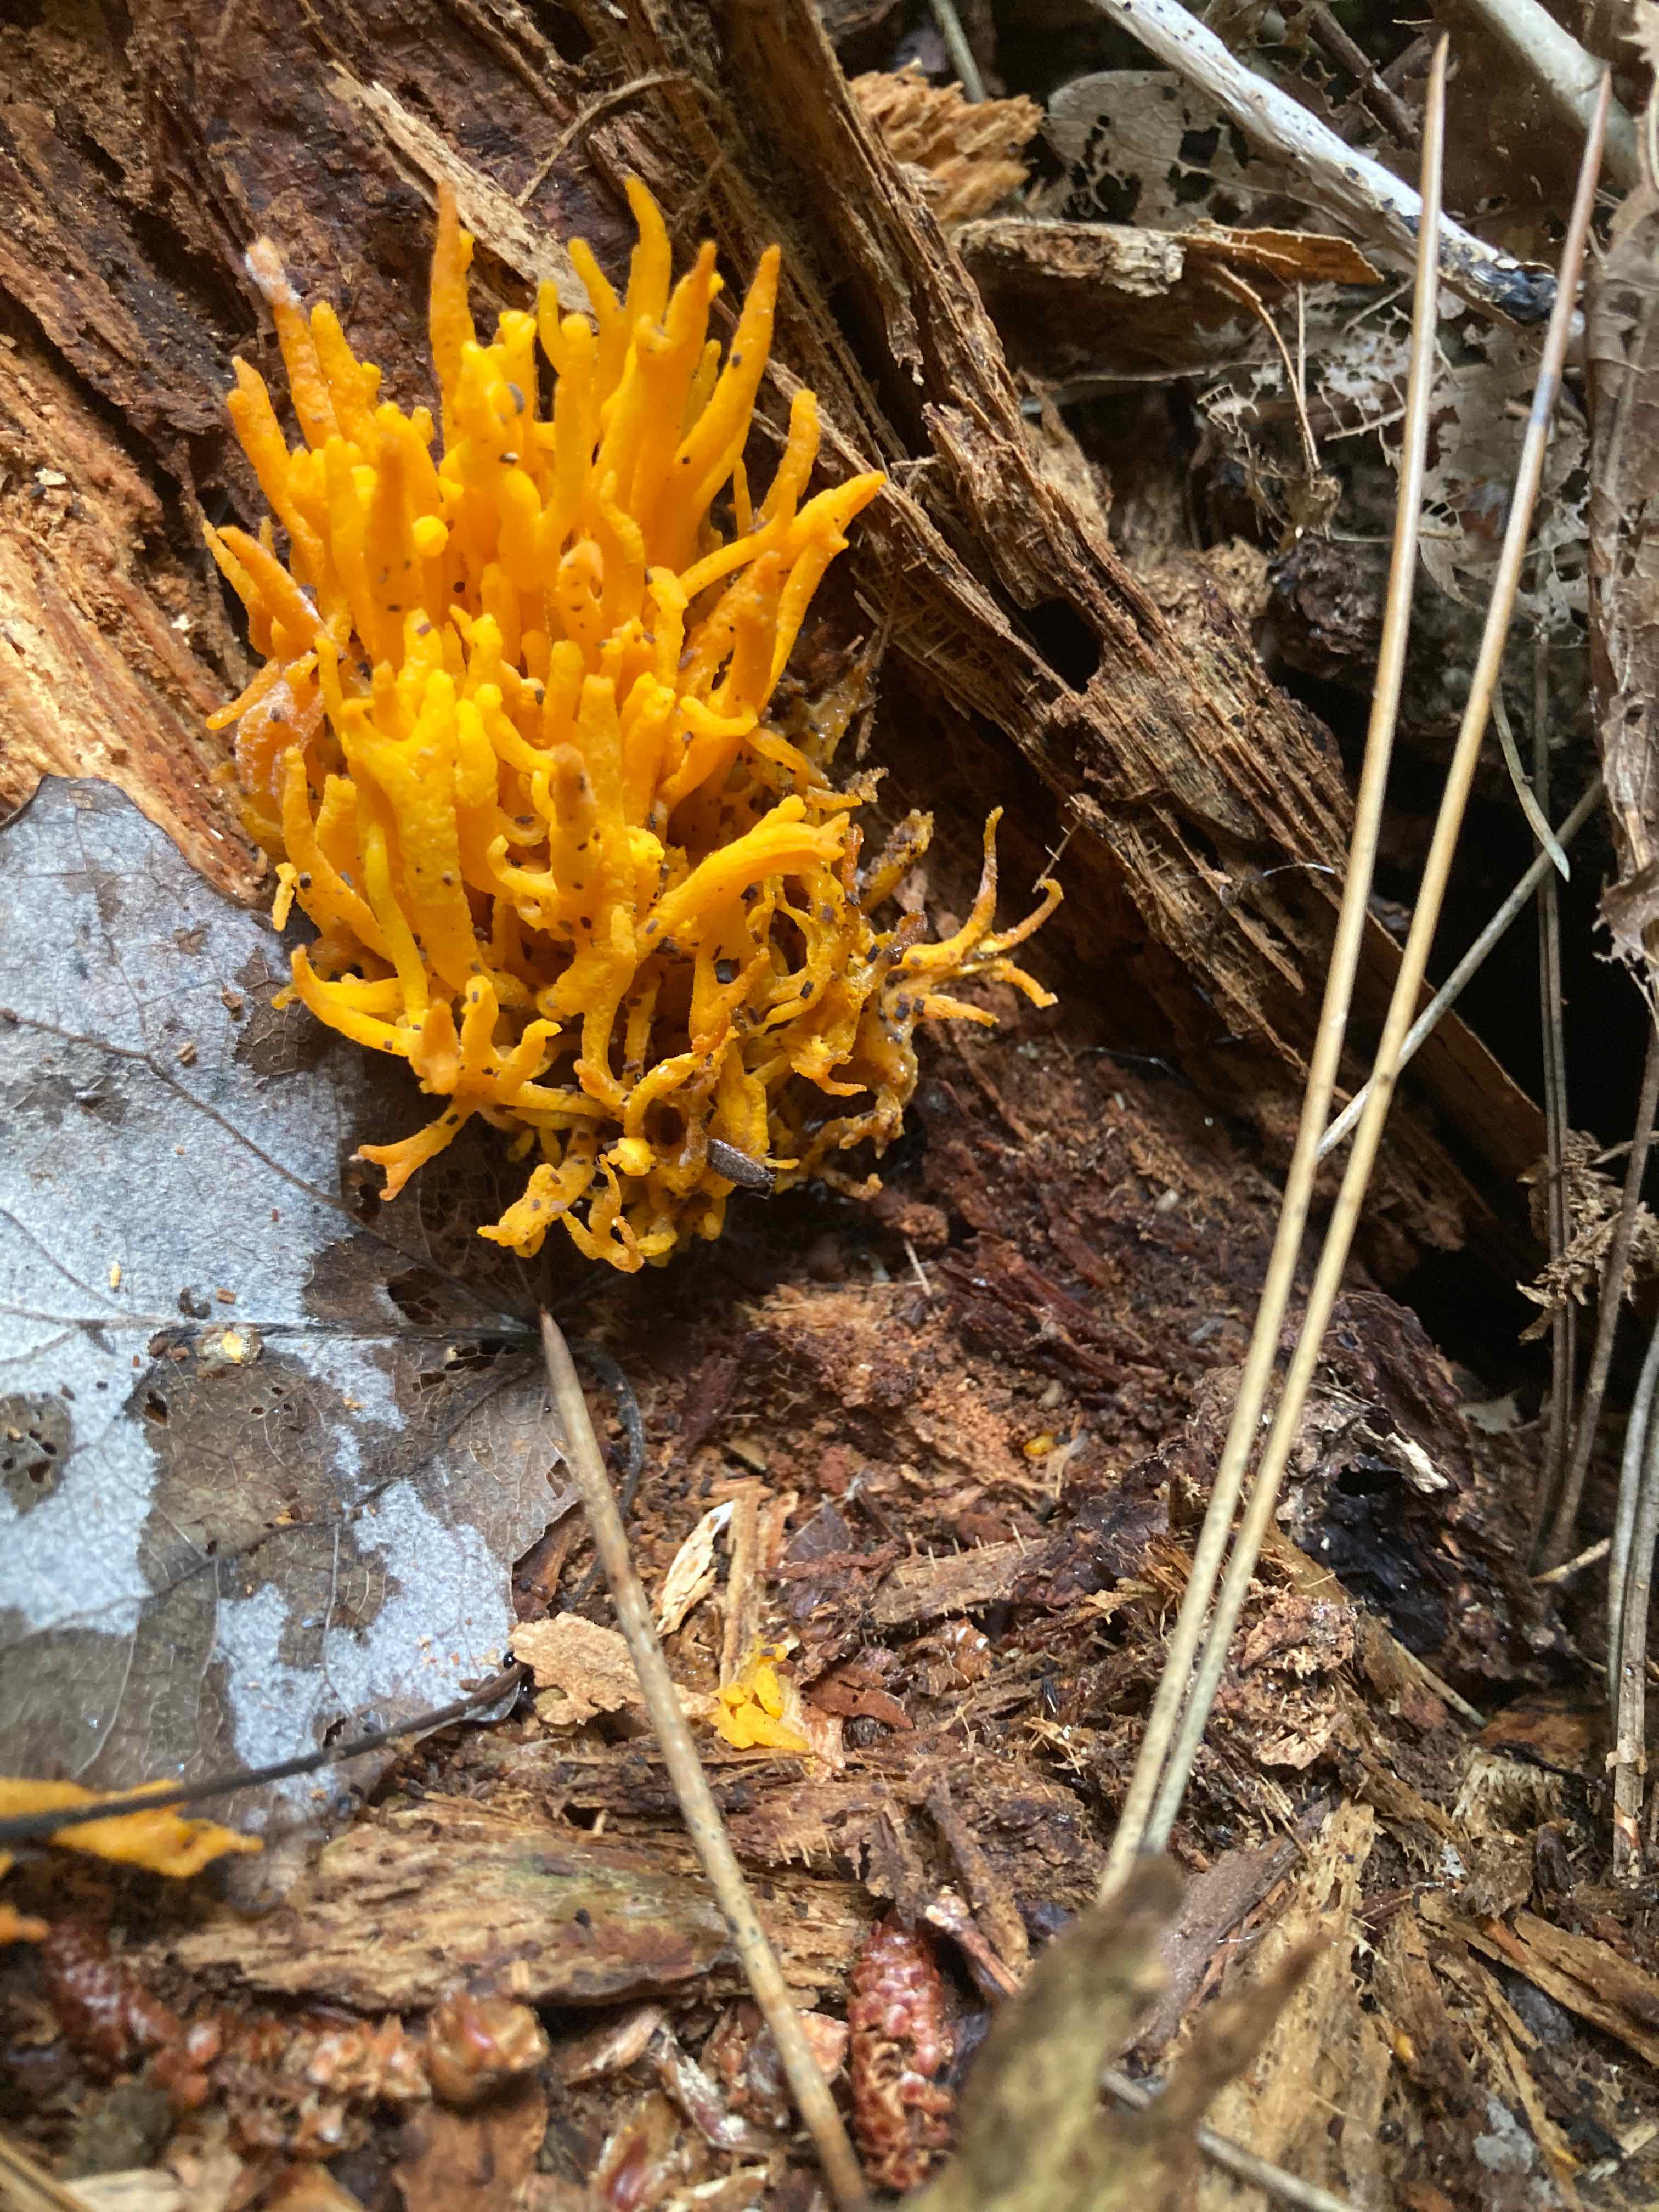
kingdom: Fungi
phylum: Basidiomycota
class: Dacrymycetes
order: Dacrymycetales
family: Dacrymycetaceae
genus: Calocera
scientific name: Calocera viscosa
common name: almindelig guldgaffel
